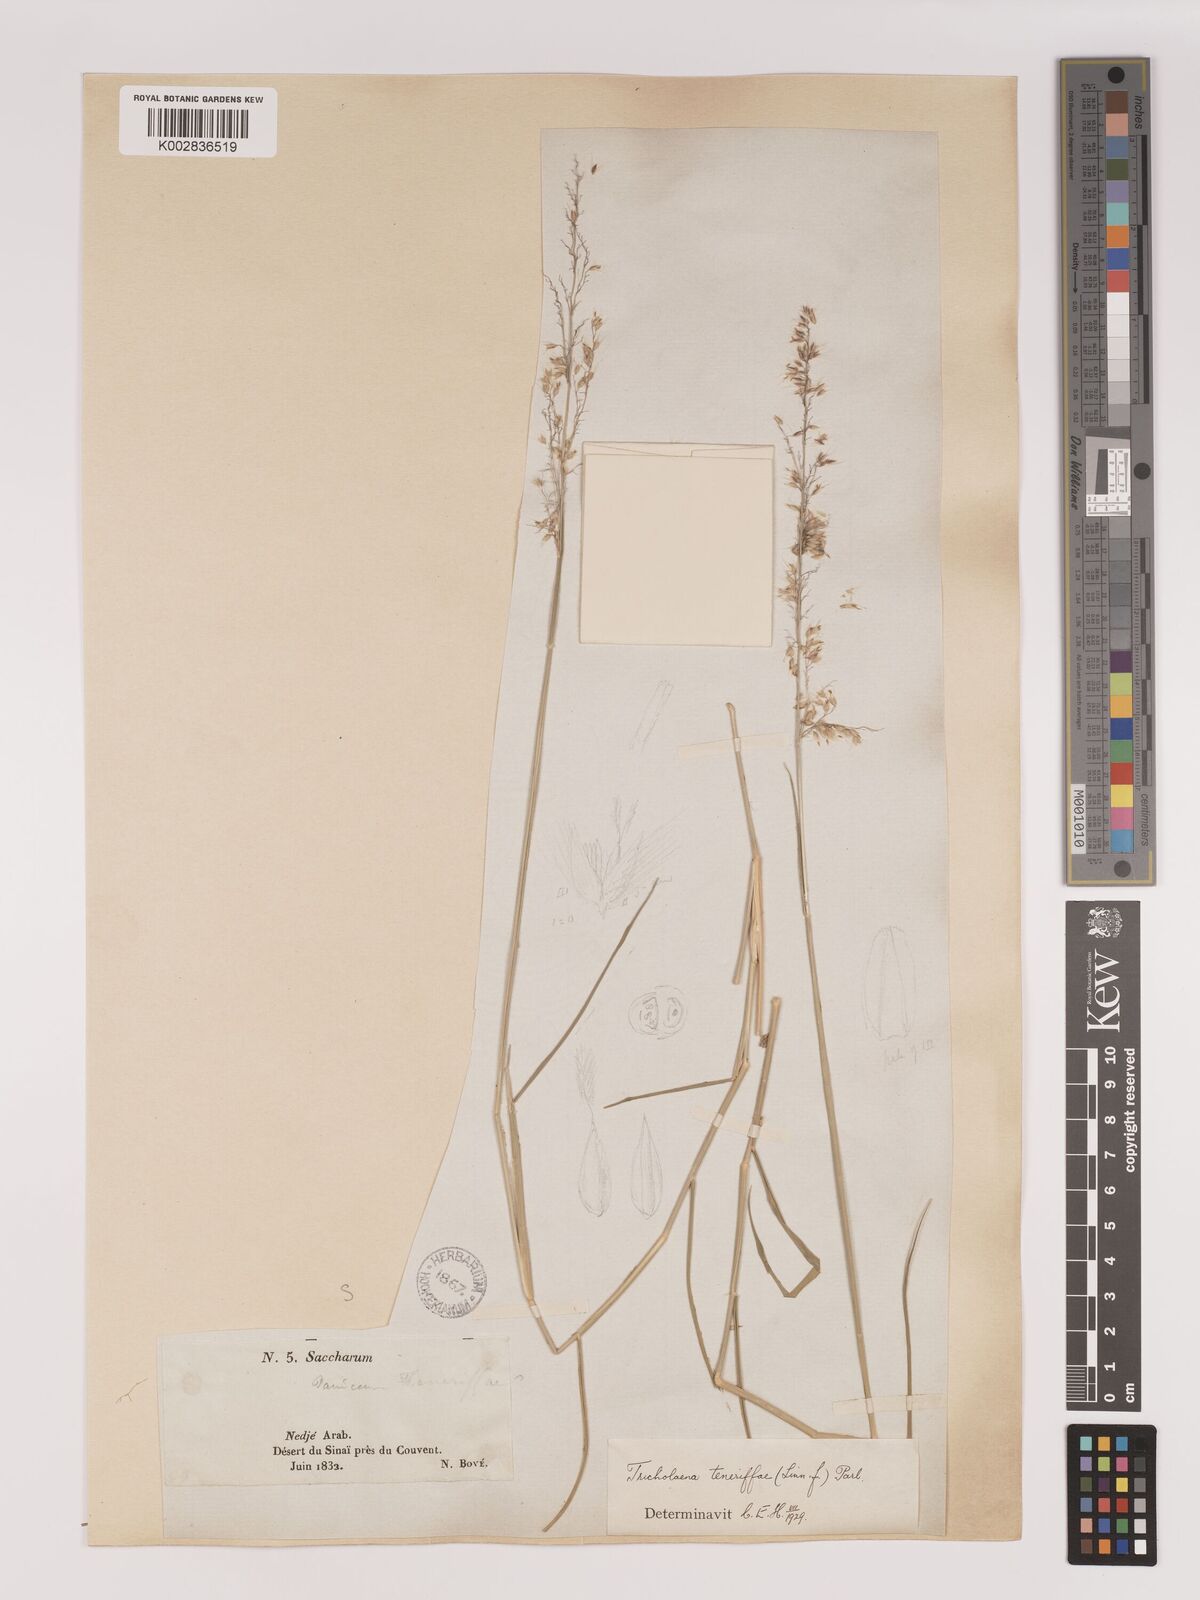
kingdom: Plantae
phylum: Tracheophyta
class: Liliopsida
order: Poales
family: Poaceae
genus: Tricholaena
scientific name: Tricholaena teneriffae
